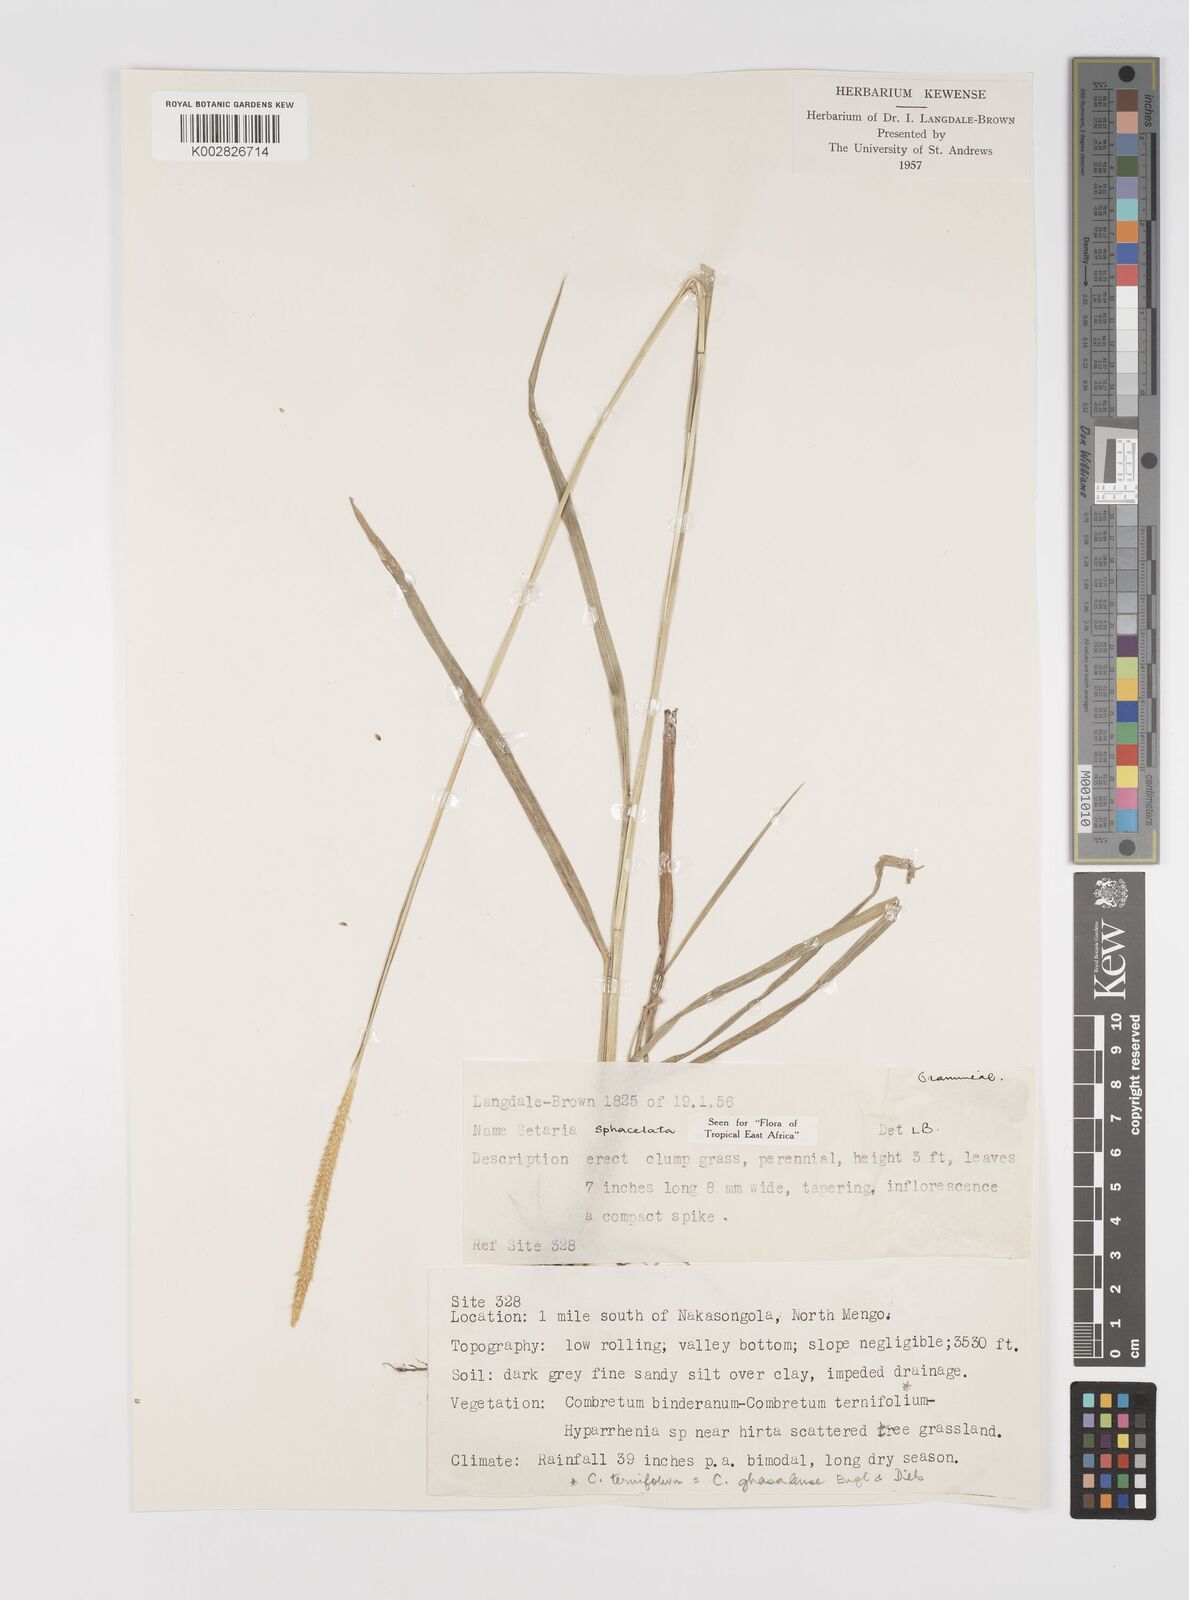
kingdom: Plantae
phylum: Tracheophyta
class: Liliopsida
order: Poales
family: Poaceae
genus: Setaria
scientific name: Setaria sphacelata
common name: African bristlegrass
